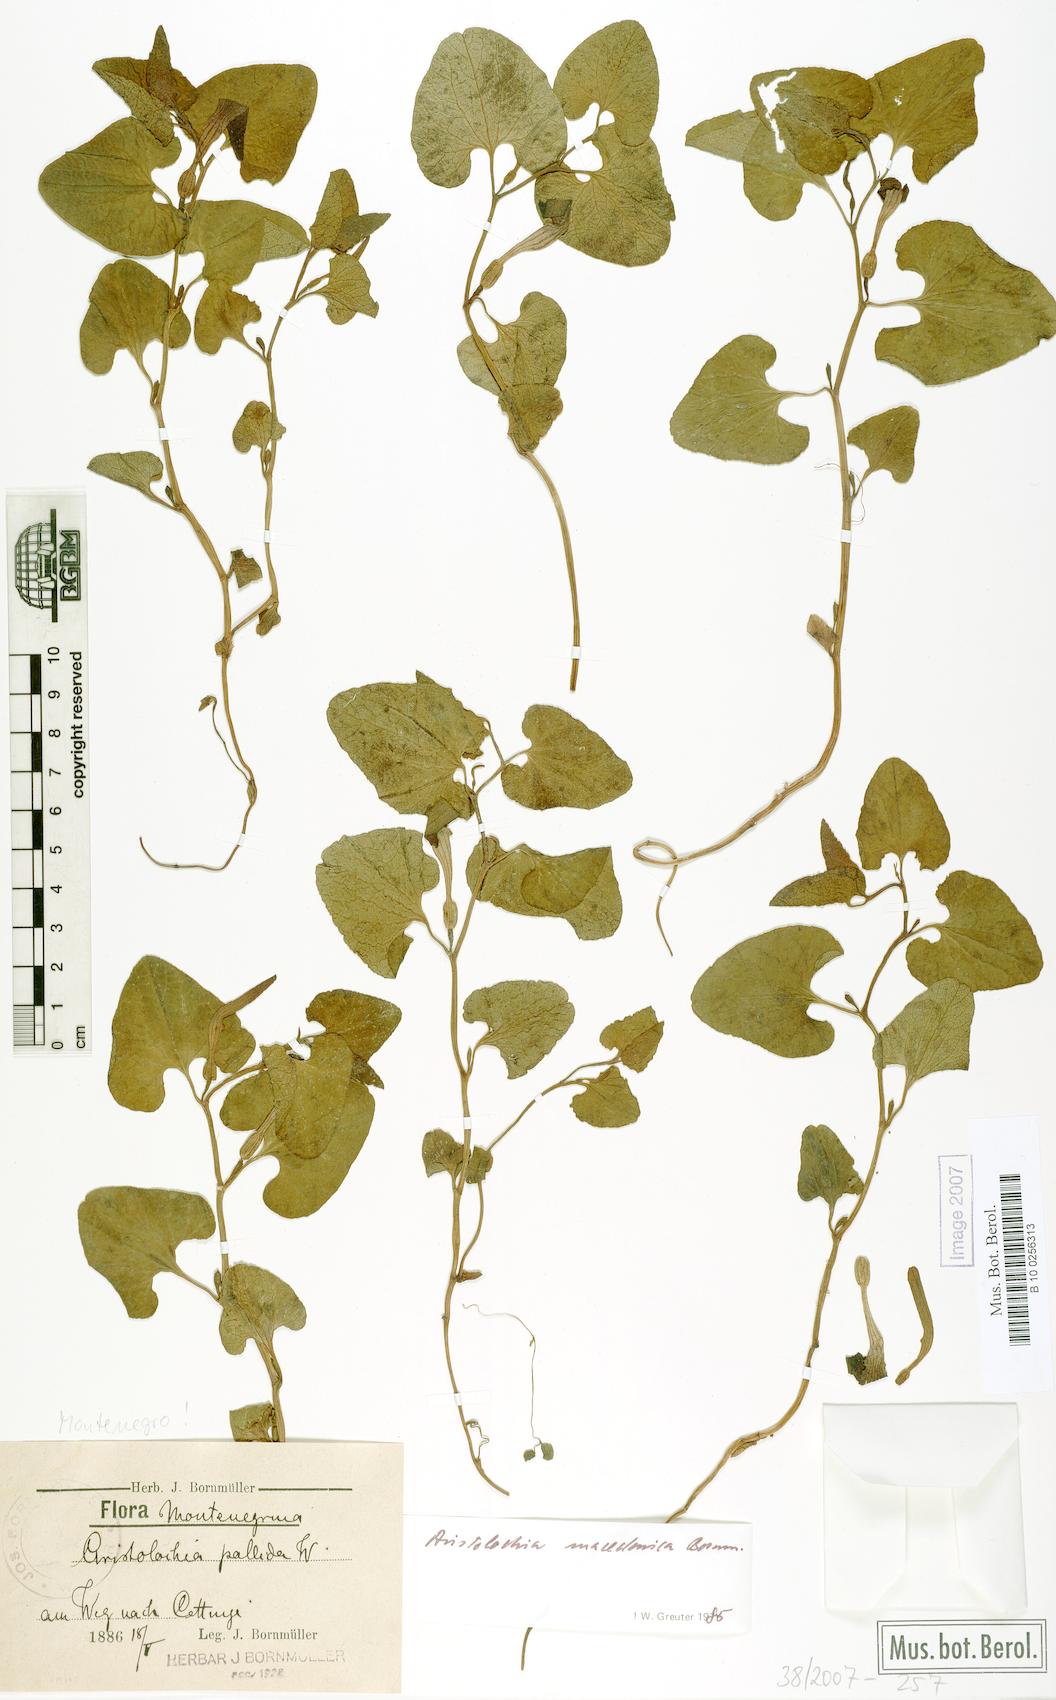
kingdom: Plantae
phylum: Tracheophyta
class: Magnoliopsida
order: Piperales
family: Aristolochiaceae
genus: Aristolochia
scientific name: Aristolochia pallida
